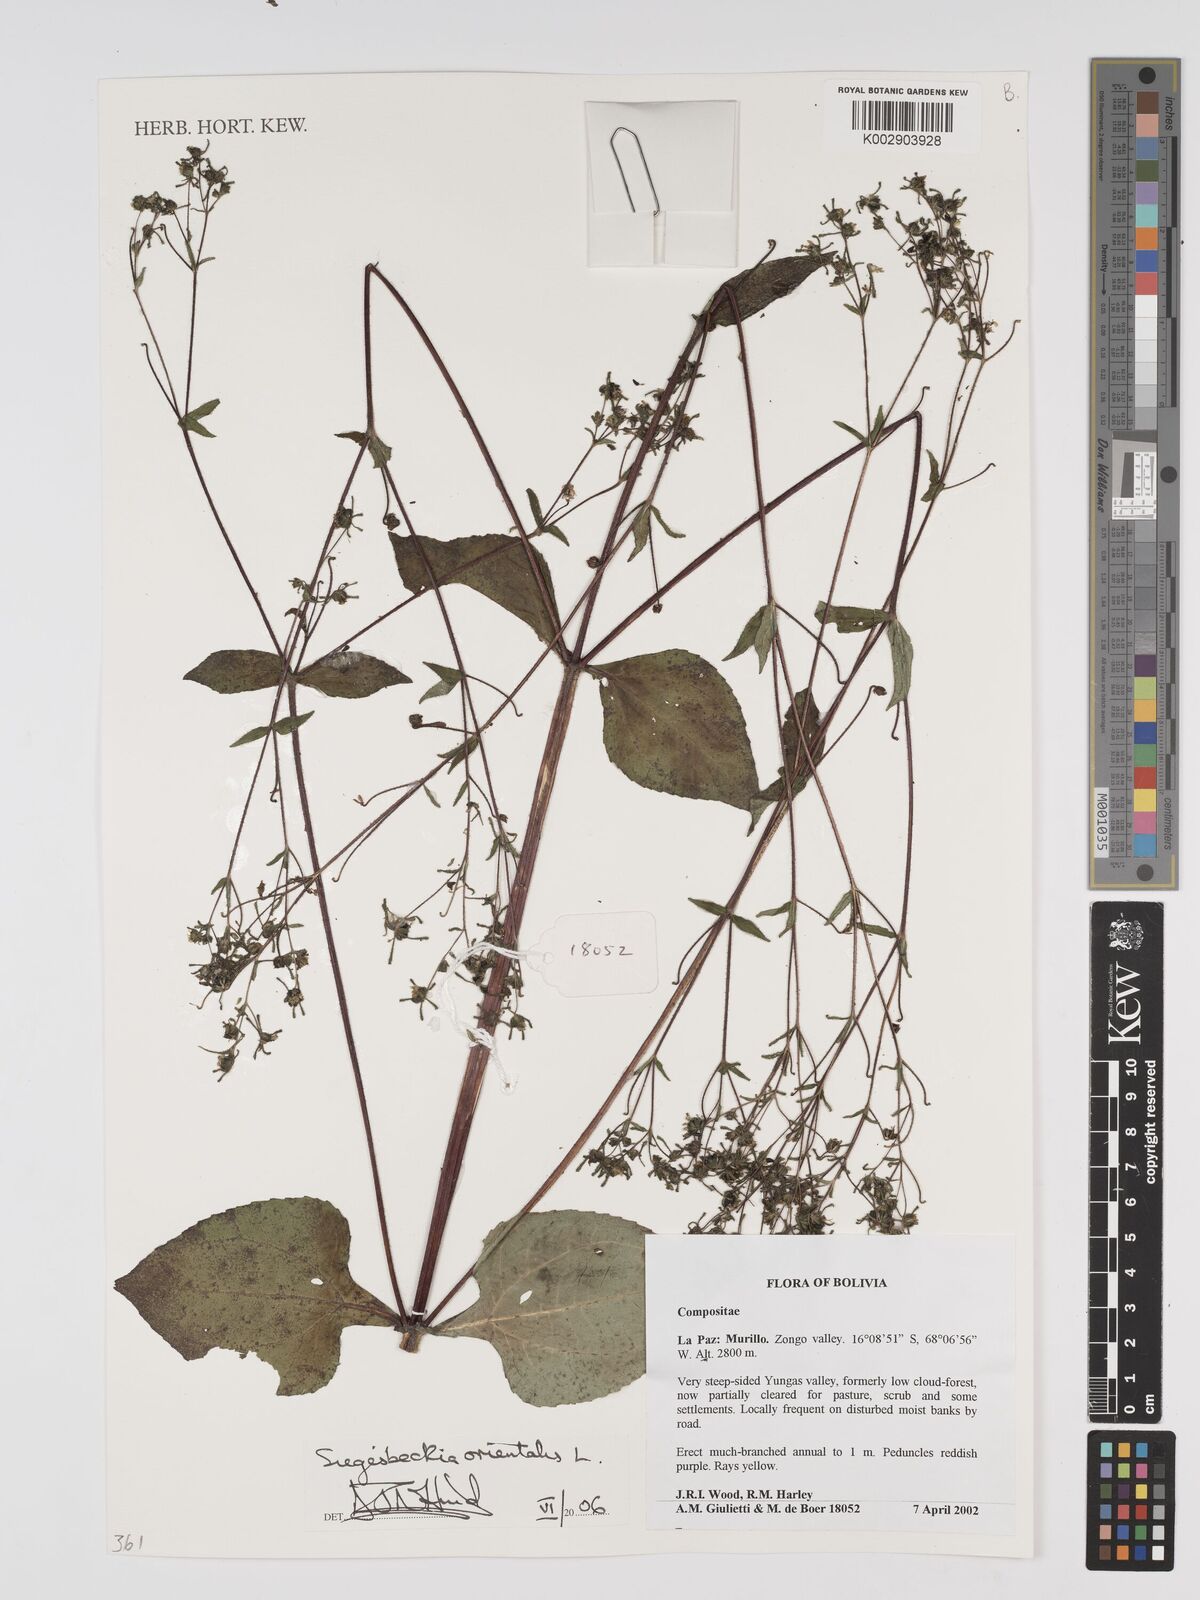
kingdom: Plantae
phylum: Tracheophyta
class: Magnoliopsida
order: Asterales
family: Asteraceae
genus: Sigesbeckia
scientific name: Sigesbeckia orientalis
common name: Eastern st paul's-wort
